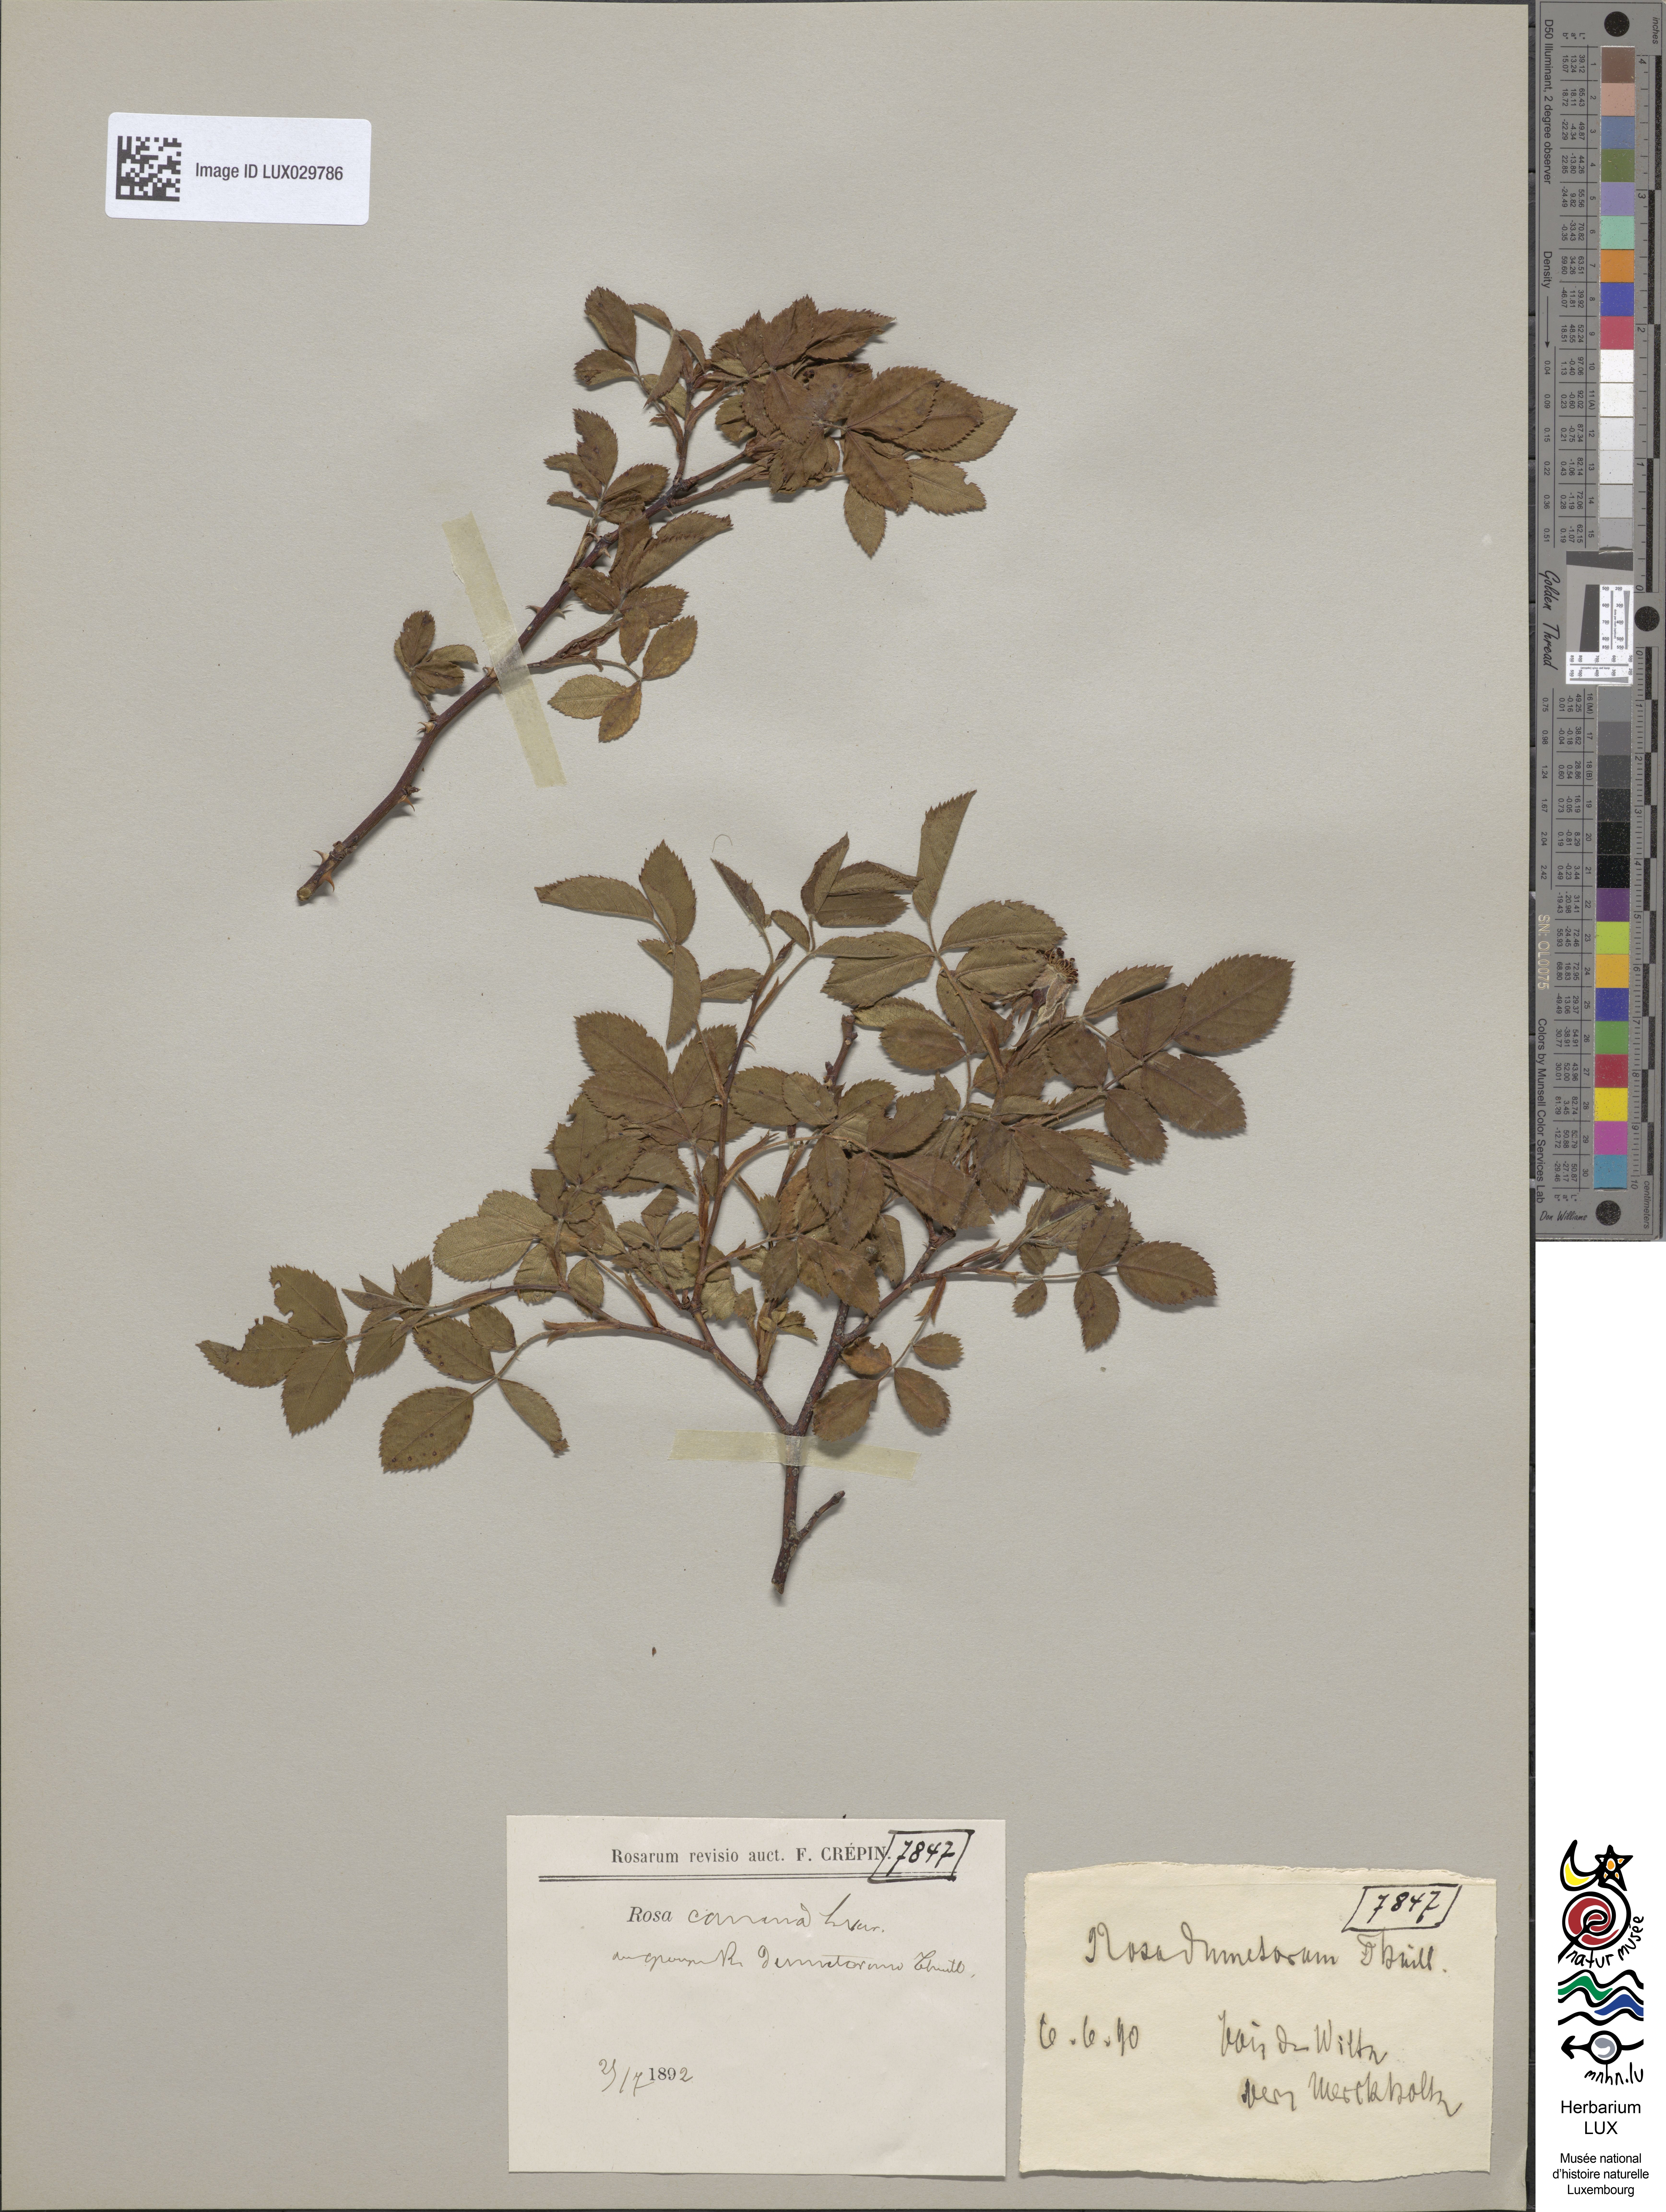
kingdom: Plantae
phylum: Tracheophyta
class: Magnoliopsida
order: Rosales
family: Rosaceae
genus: Rosa
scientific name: Rosa canina
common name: Dog rose
